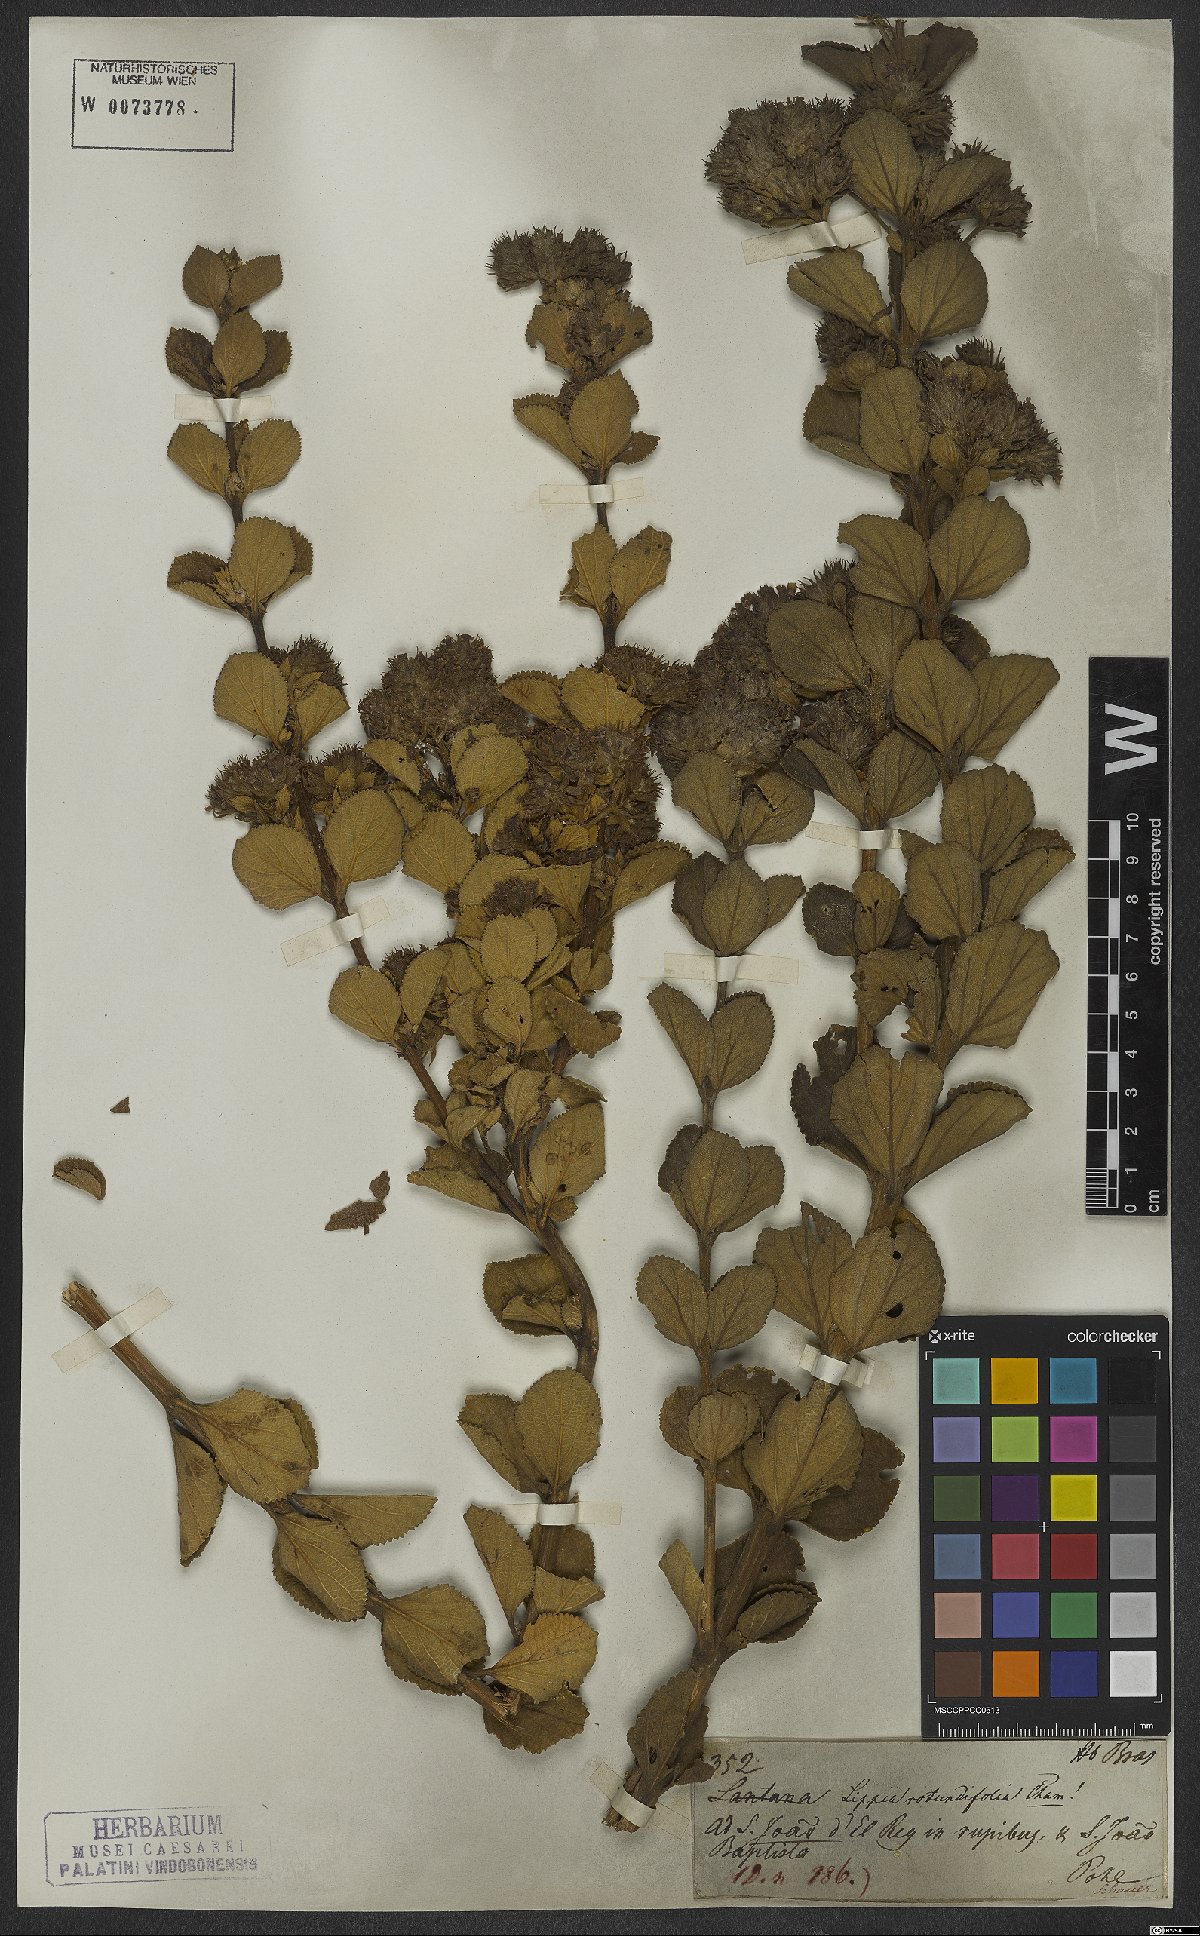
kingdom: Plantae
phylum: Tracheophyta
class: Magnoliopsida
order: Lamiales
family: Verbenaceae
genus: Lippia
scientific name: Lippia rotundifolia
